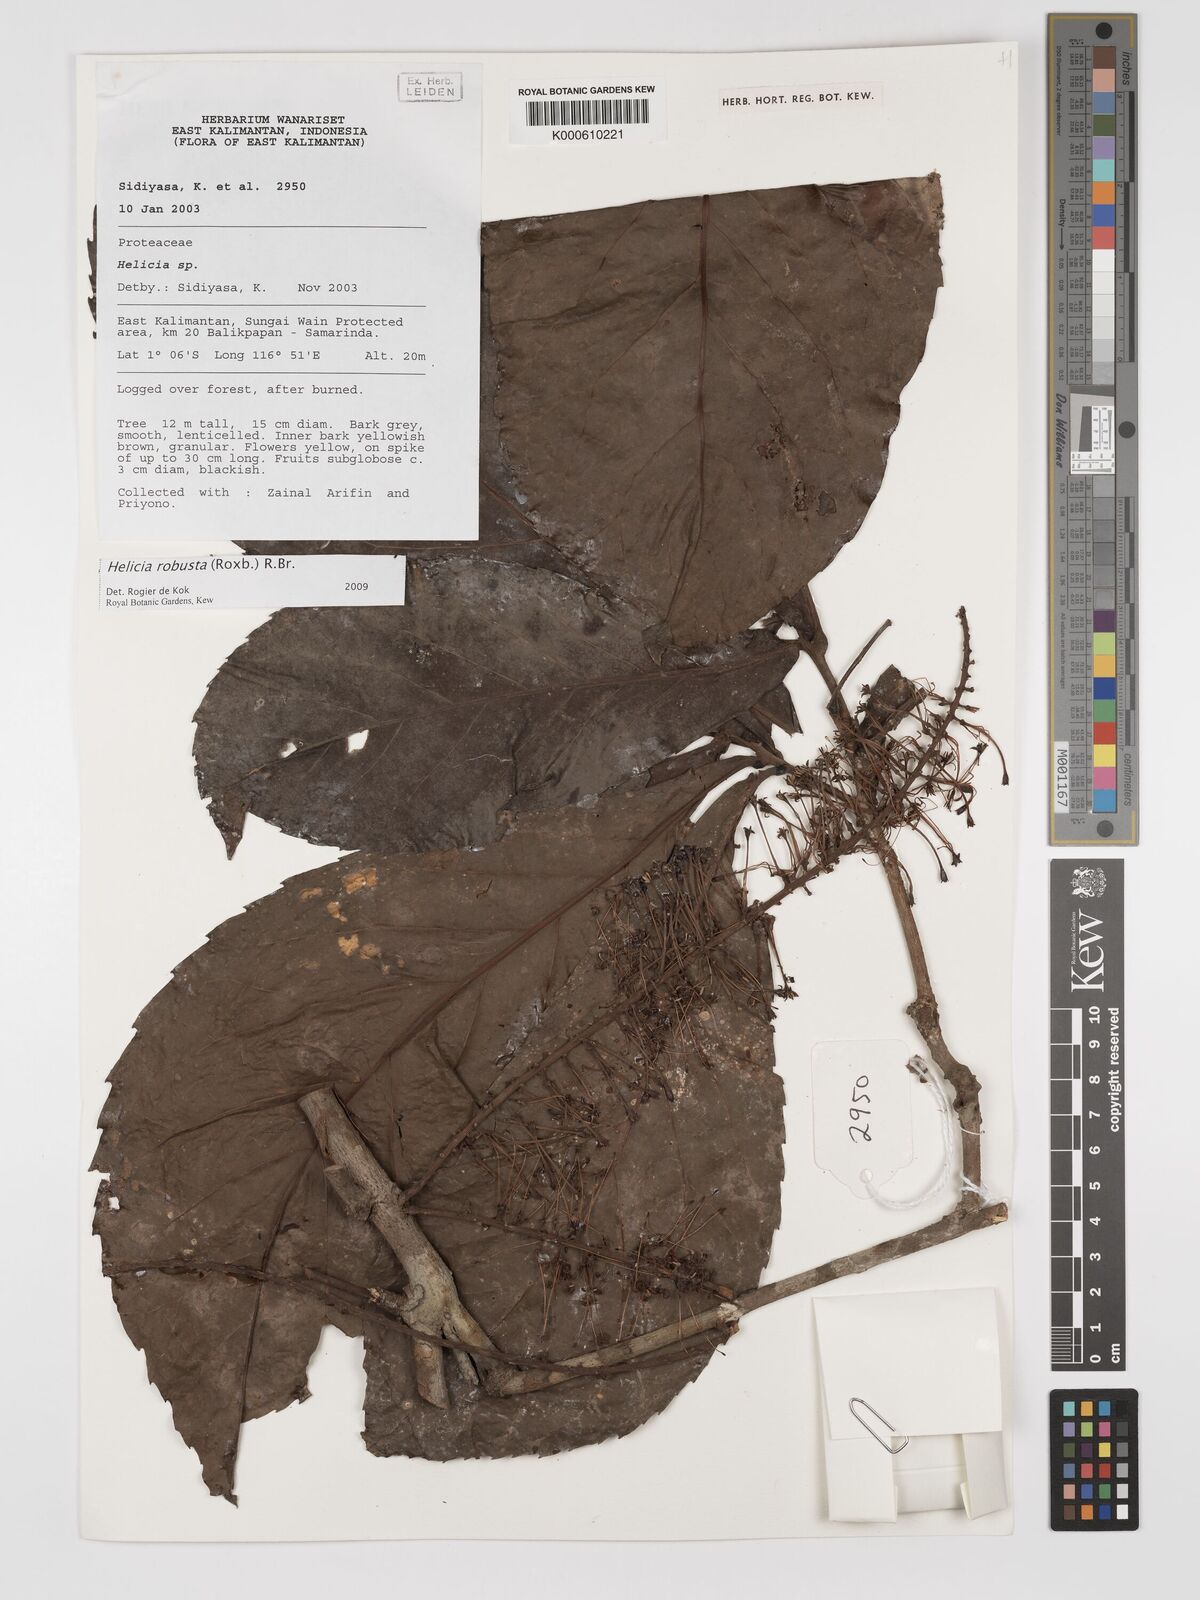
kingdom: Plantae
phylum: Tracheophyta
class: Magnoliopsida
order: Proteales
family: Proteaceae
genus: Helicia
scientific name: Helicia
